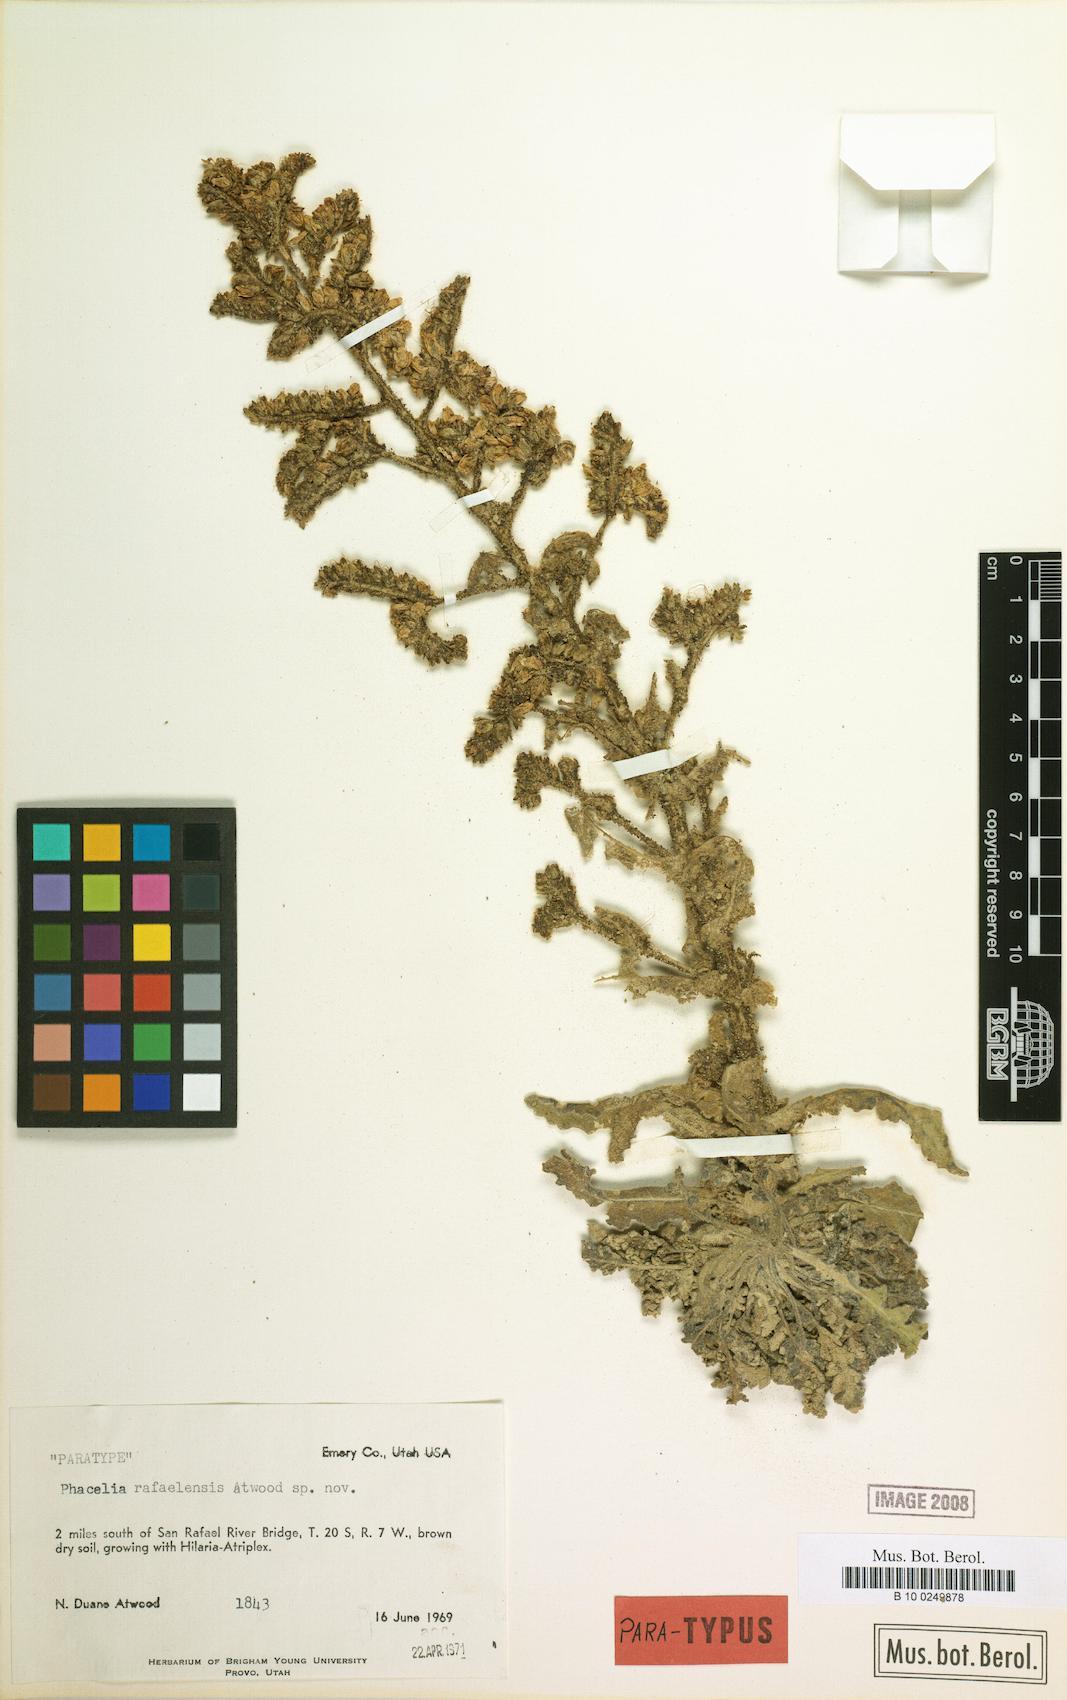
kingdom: Plantae
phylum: Tracheophyta
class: Magnoliopsida
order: Boraginales
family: Hydrophyllaceae
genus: Phacelia
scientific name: Phacelia rafaelensis
